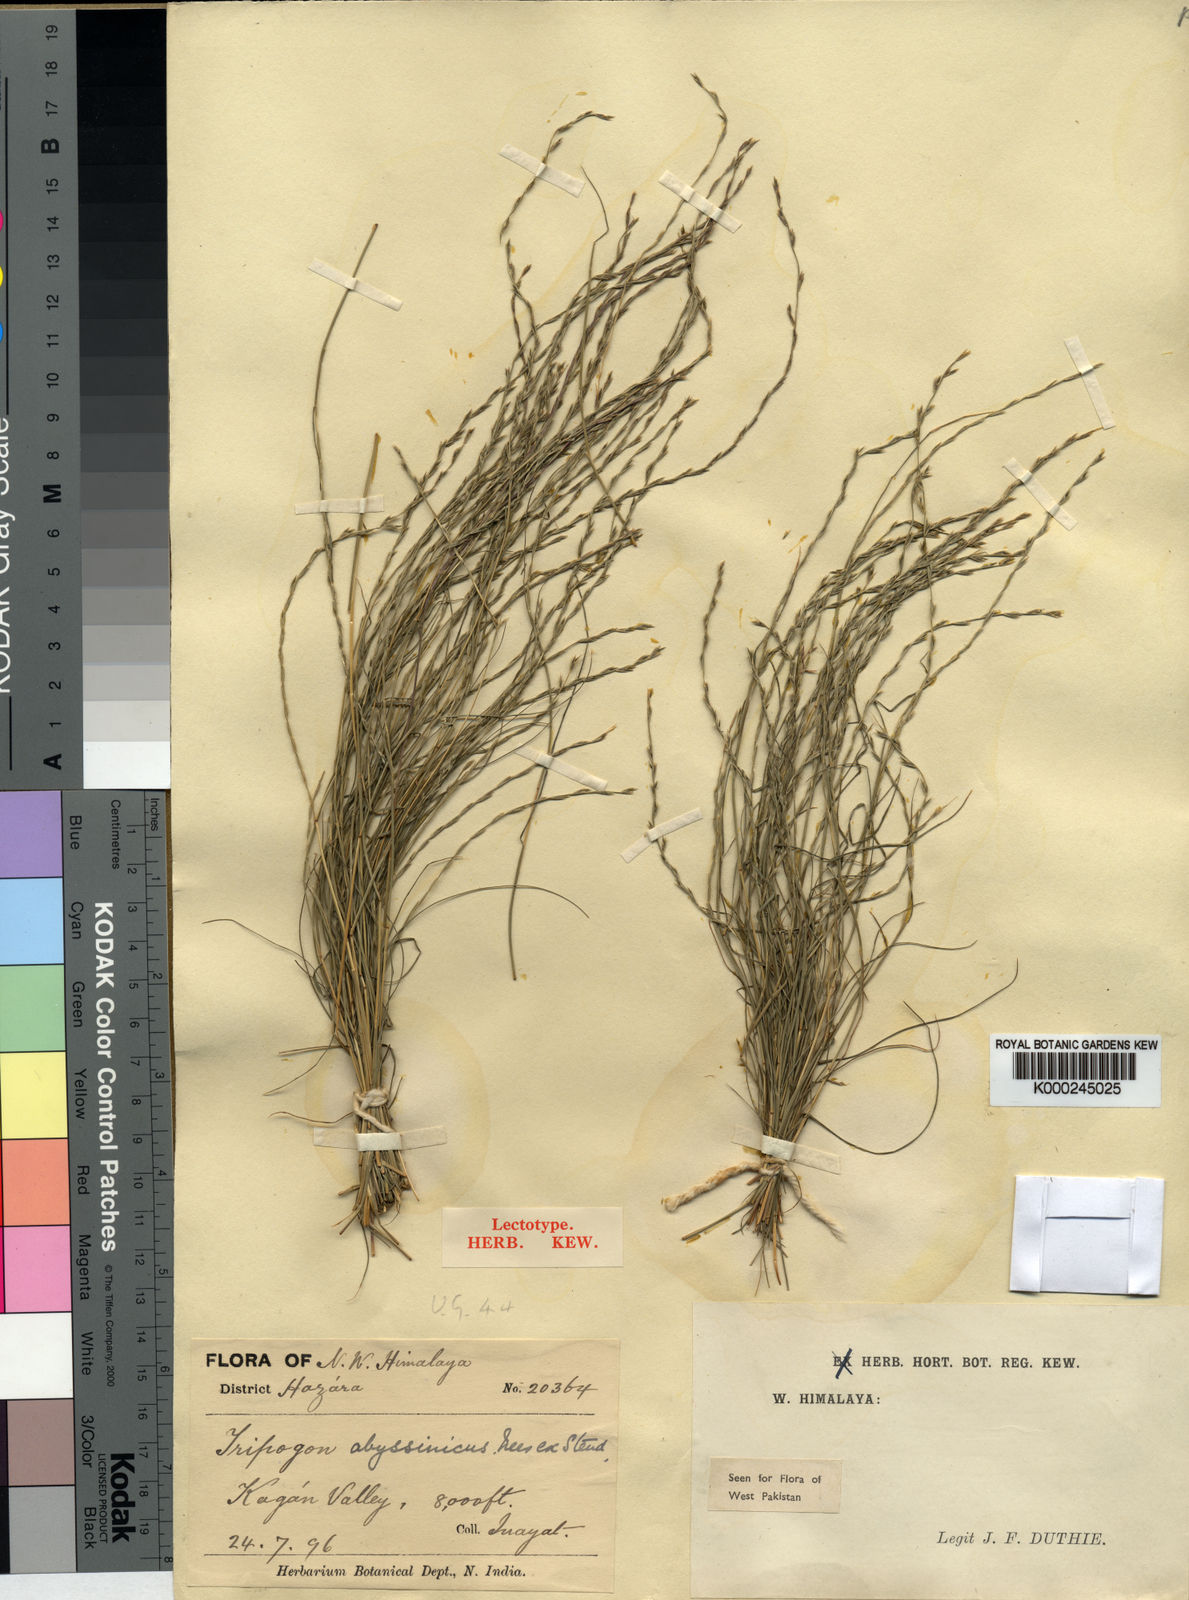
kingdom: Plantae
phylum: Tracheophyta
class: Liliopsida
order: Poales
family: Poaceae
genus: Tripogon
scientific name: Tripogon purpurascens
